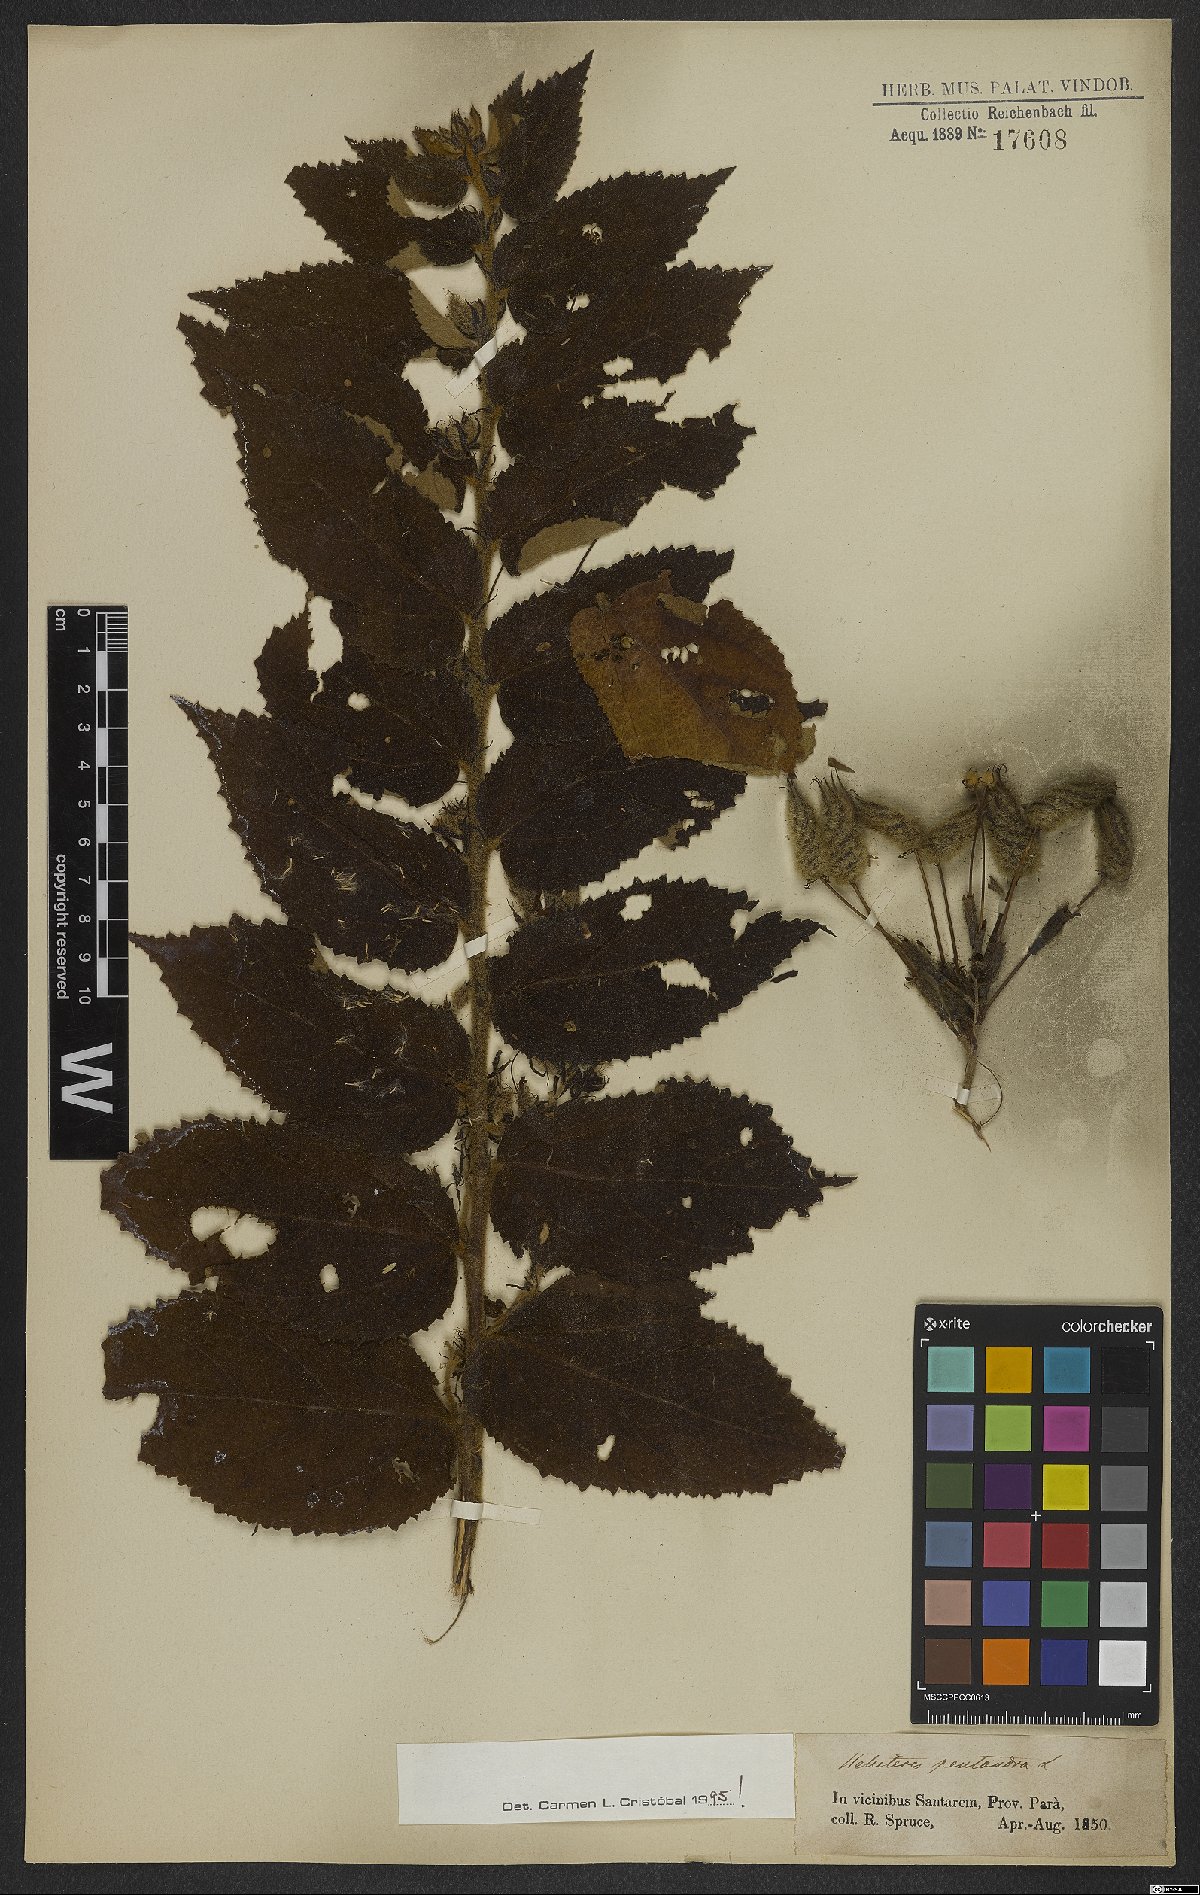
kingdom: Plantae
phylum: Tracheophyta
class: Magnoliopsida
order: Malvales
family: Malvaceae
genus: Helicteres
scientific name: Helicteres pentandra
